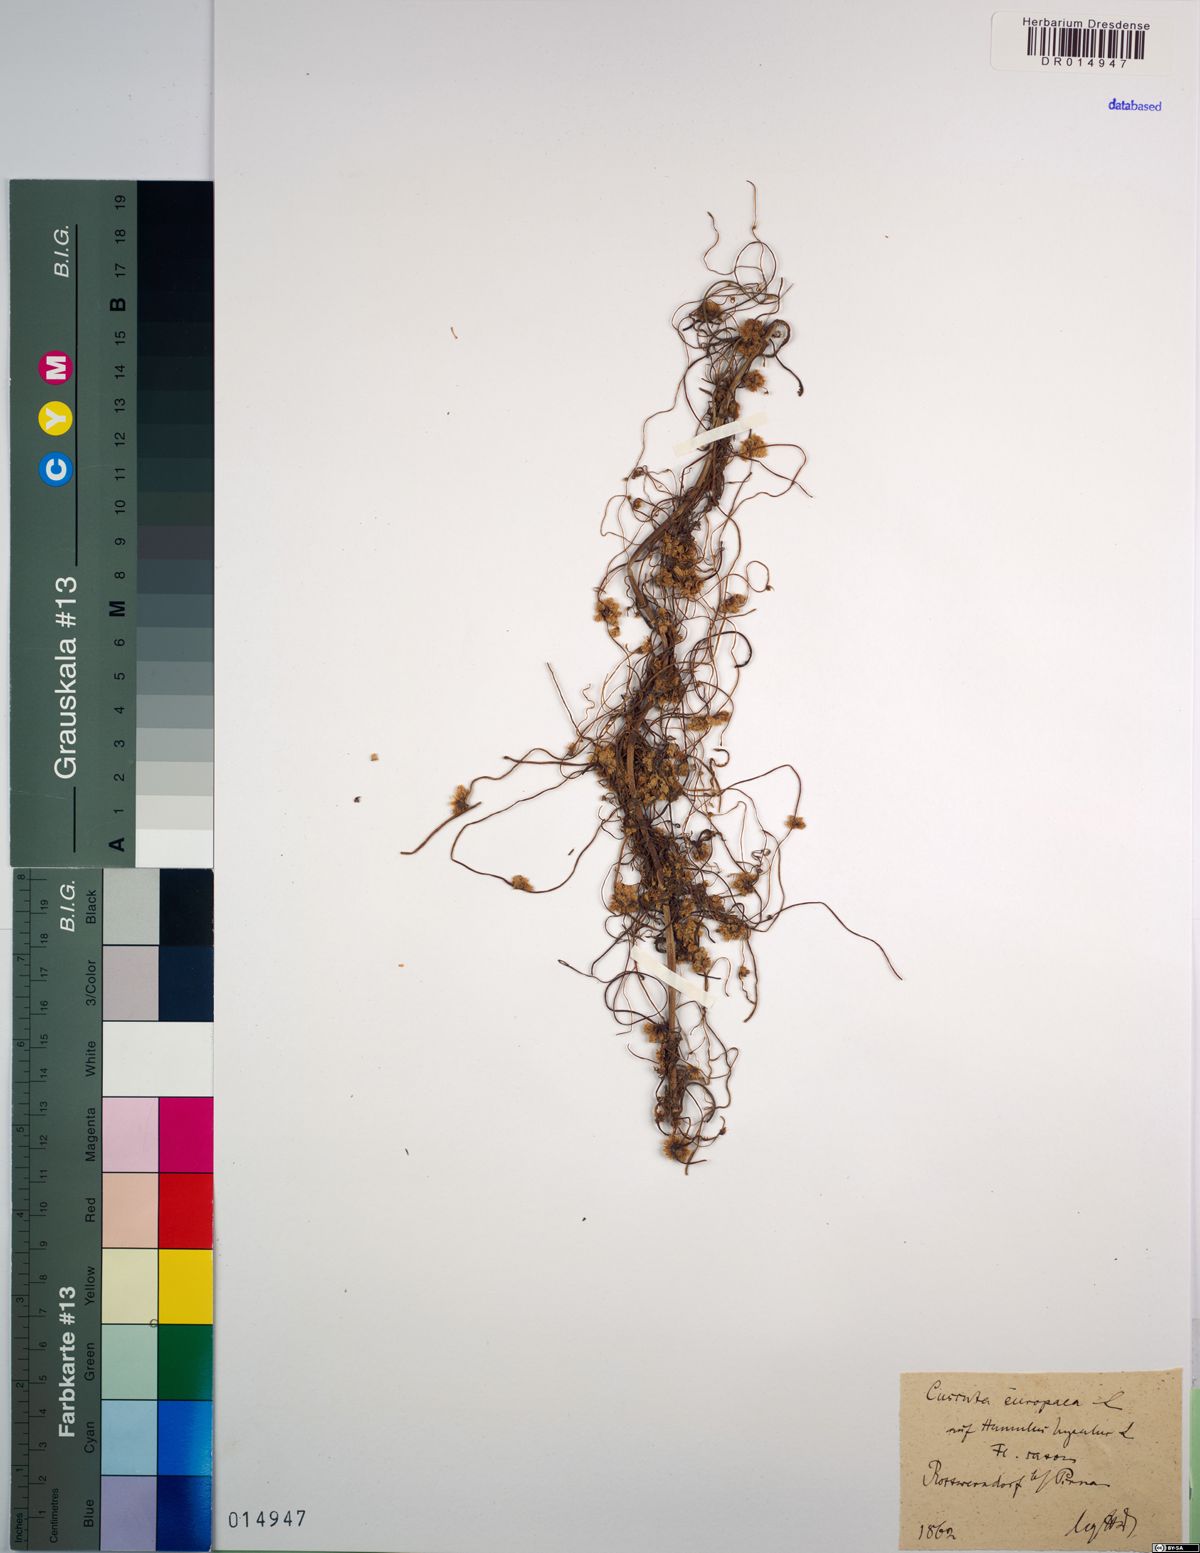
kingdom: Plantae
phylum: Tracheophyta
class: Magnoliopsida
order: Solanales
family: Convolvulaceae
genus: Cuscuta
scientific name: Cuscuta europaea
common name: Greater dodder
